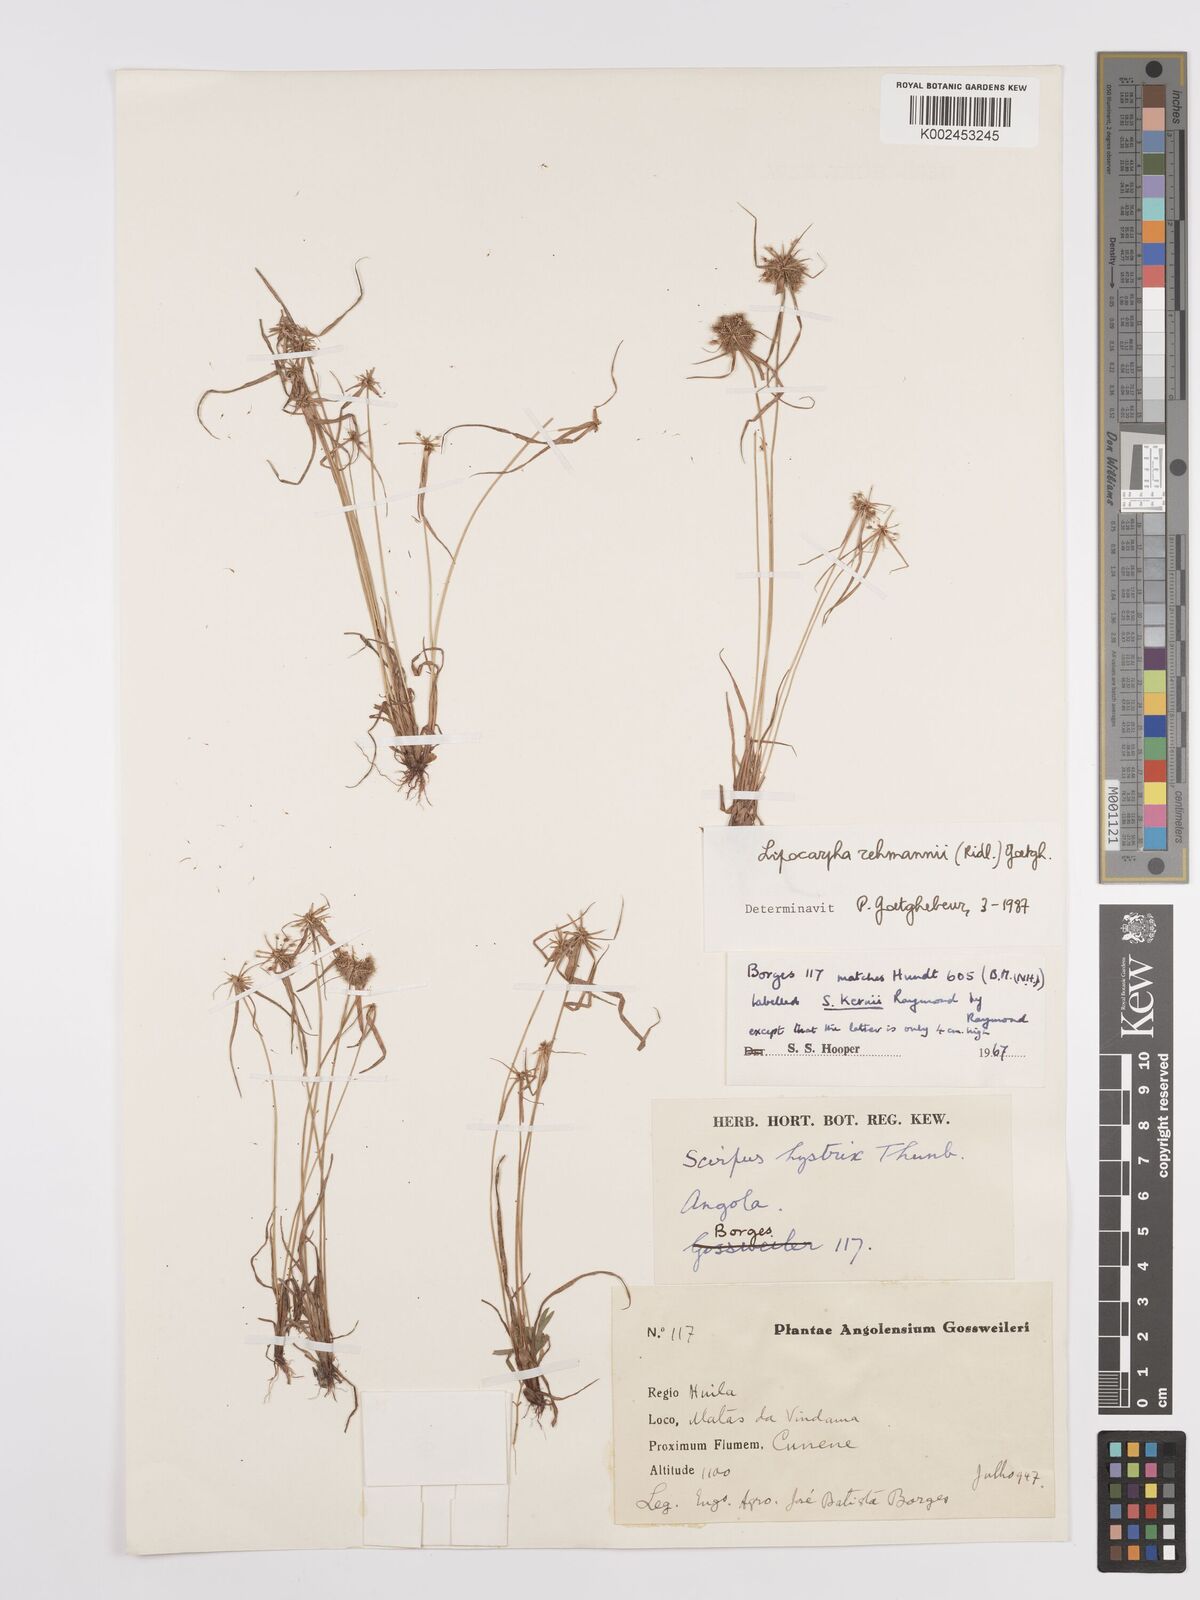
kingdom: Plantae
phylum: Tracheophyta
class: Liliopsida
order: Poales
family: Cyperaceae
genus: Cyperus
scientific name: Cyperus sanguinolentus
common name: Purpleglume flatsedge
